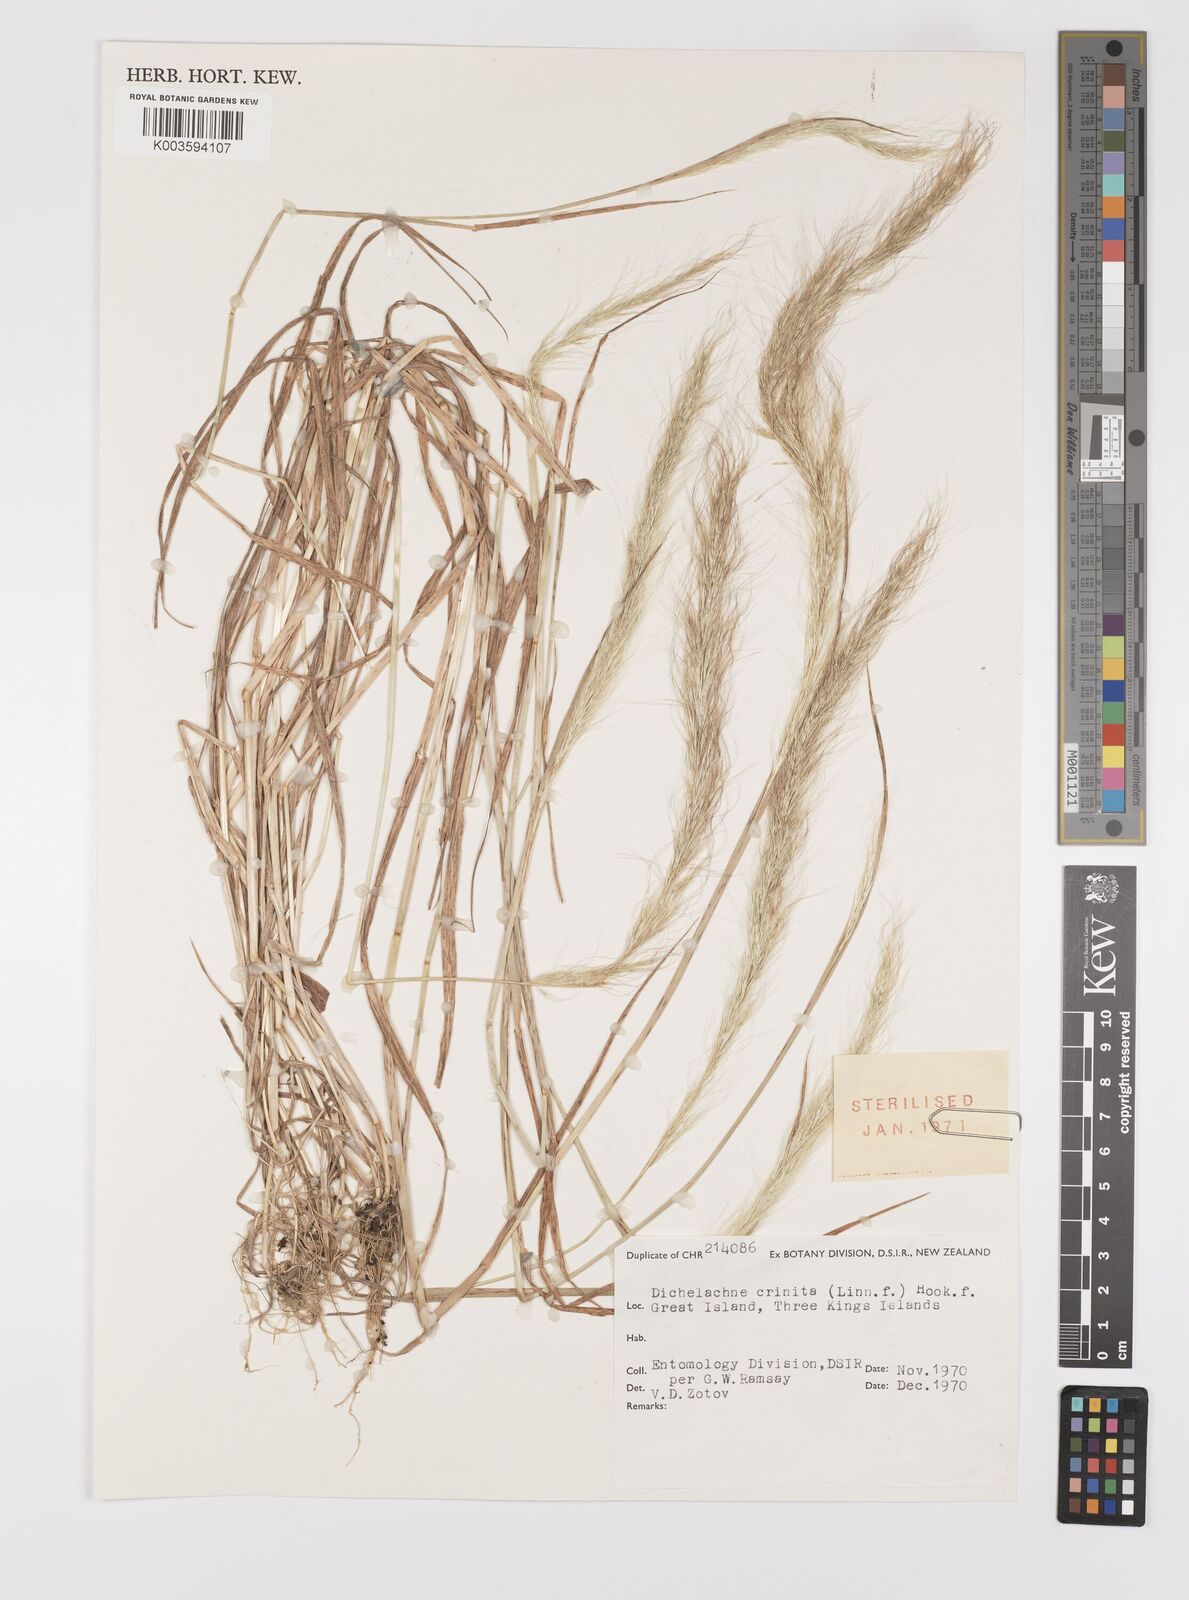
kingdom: Plantae
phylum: Tracheophyta
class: Liliopsida
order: Poales
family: Poaceae
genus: Dichelachne
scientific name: Dichelachne crinita
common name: Clovenfoot plumegrass
